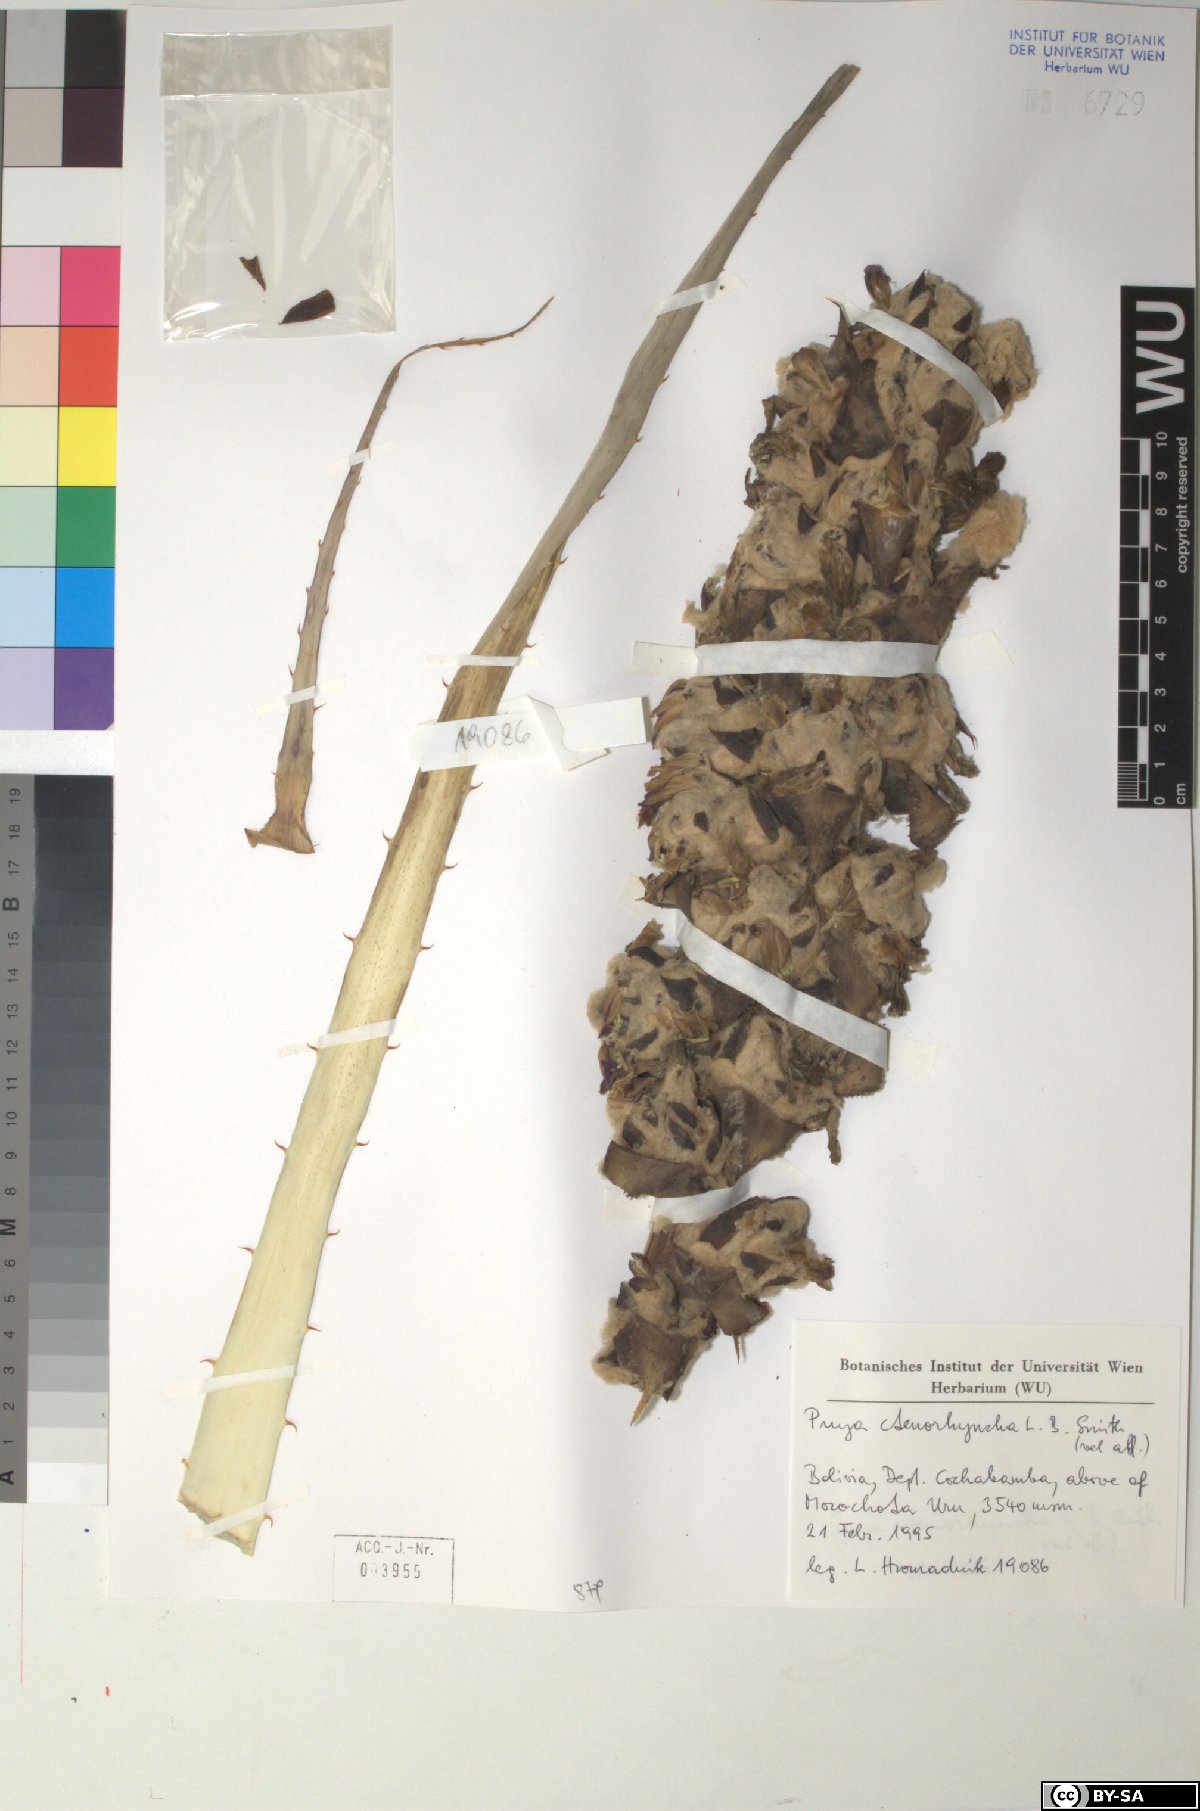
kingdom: Plantae
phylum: Tracheophyta
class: Liliopsida
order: Poales
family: Bromeliaceae
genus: Puya
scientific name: Puya ctenorhyncha
